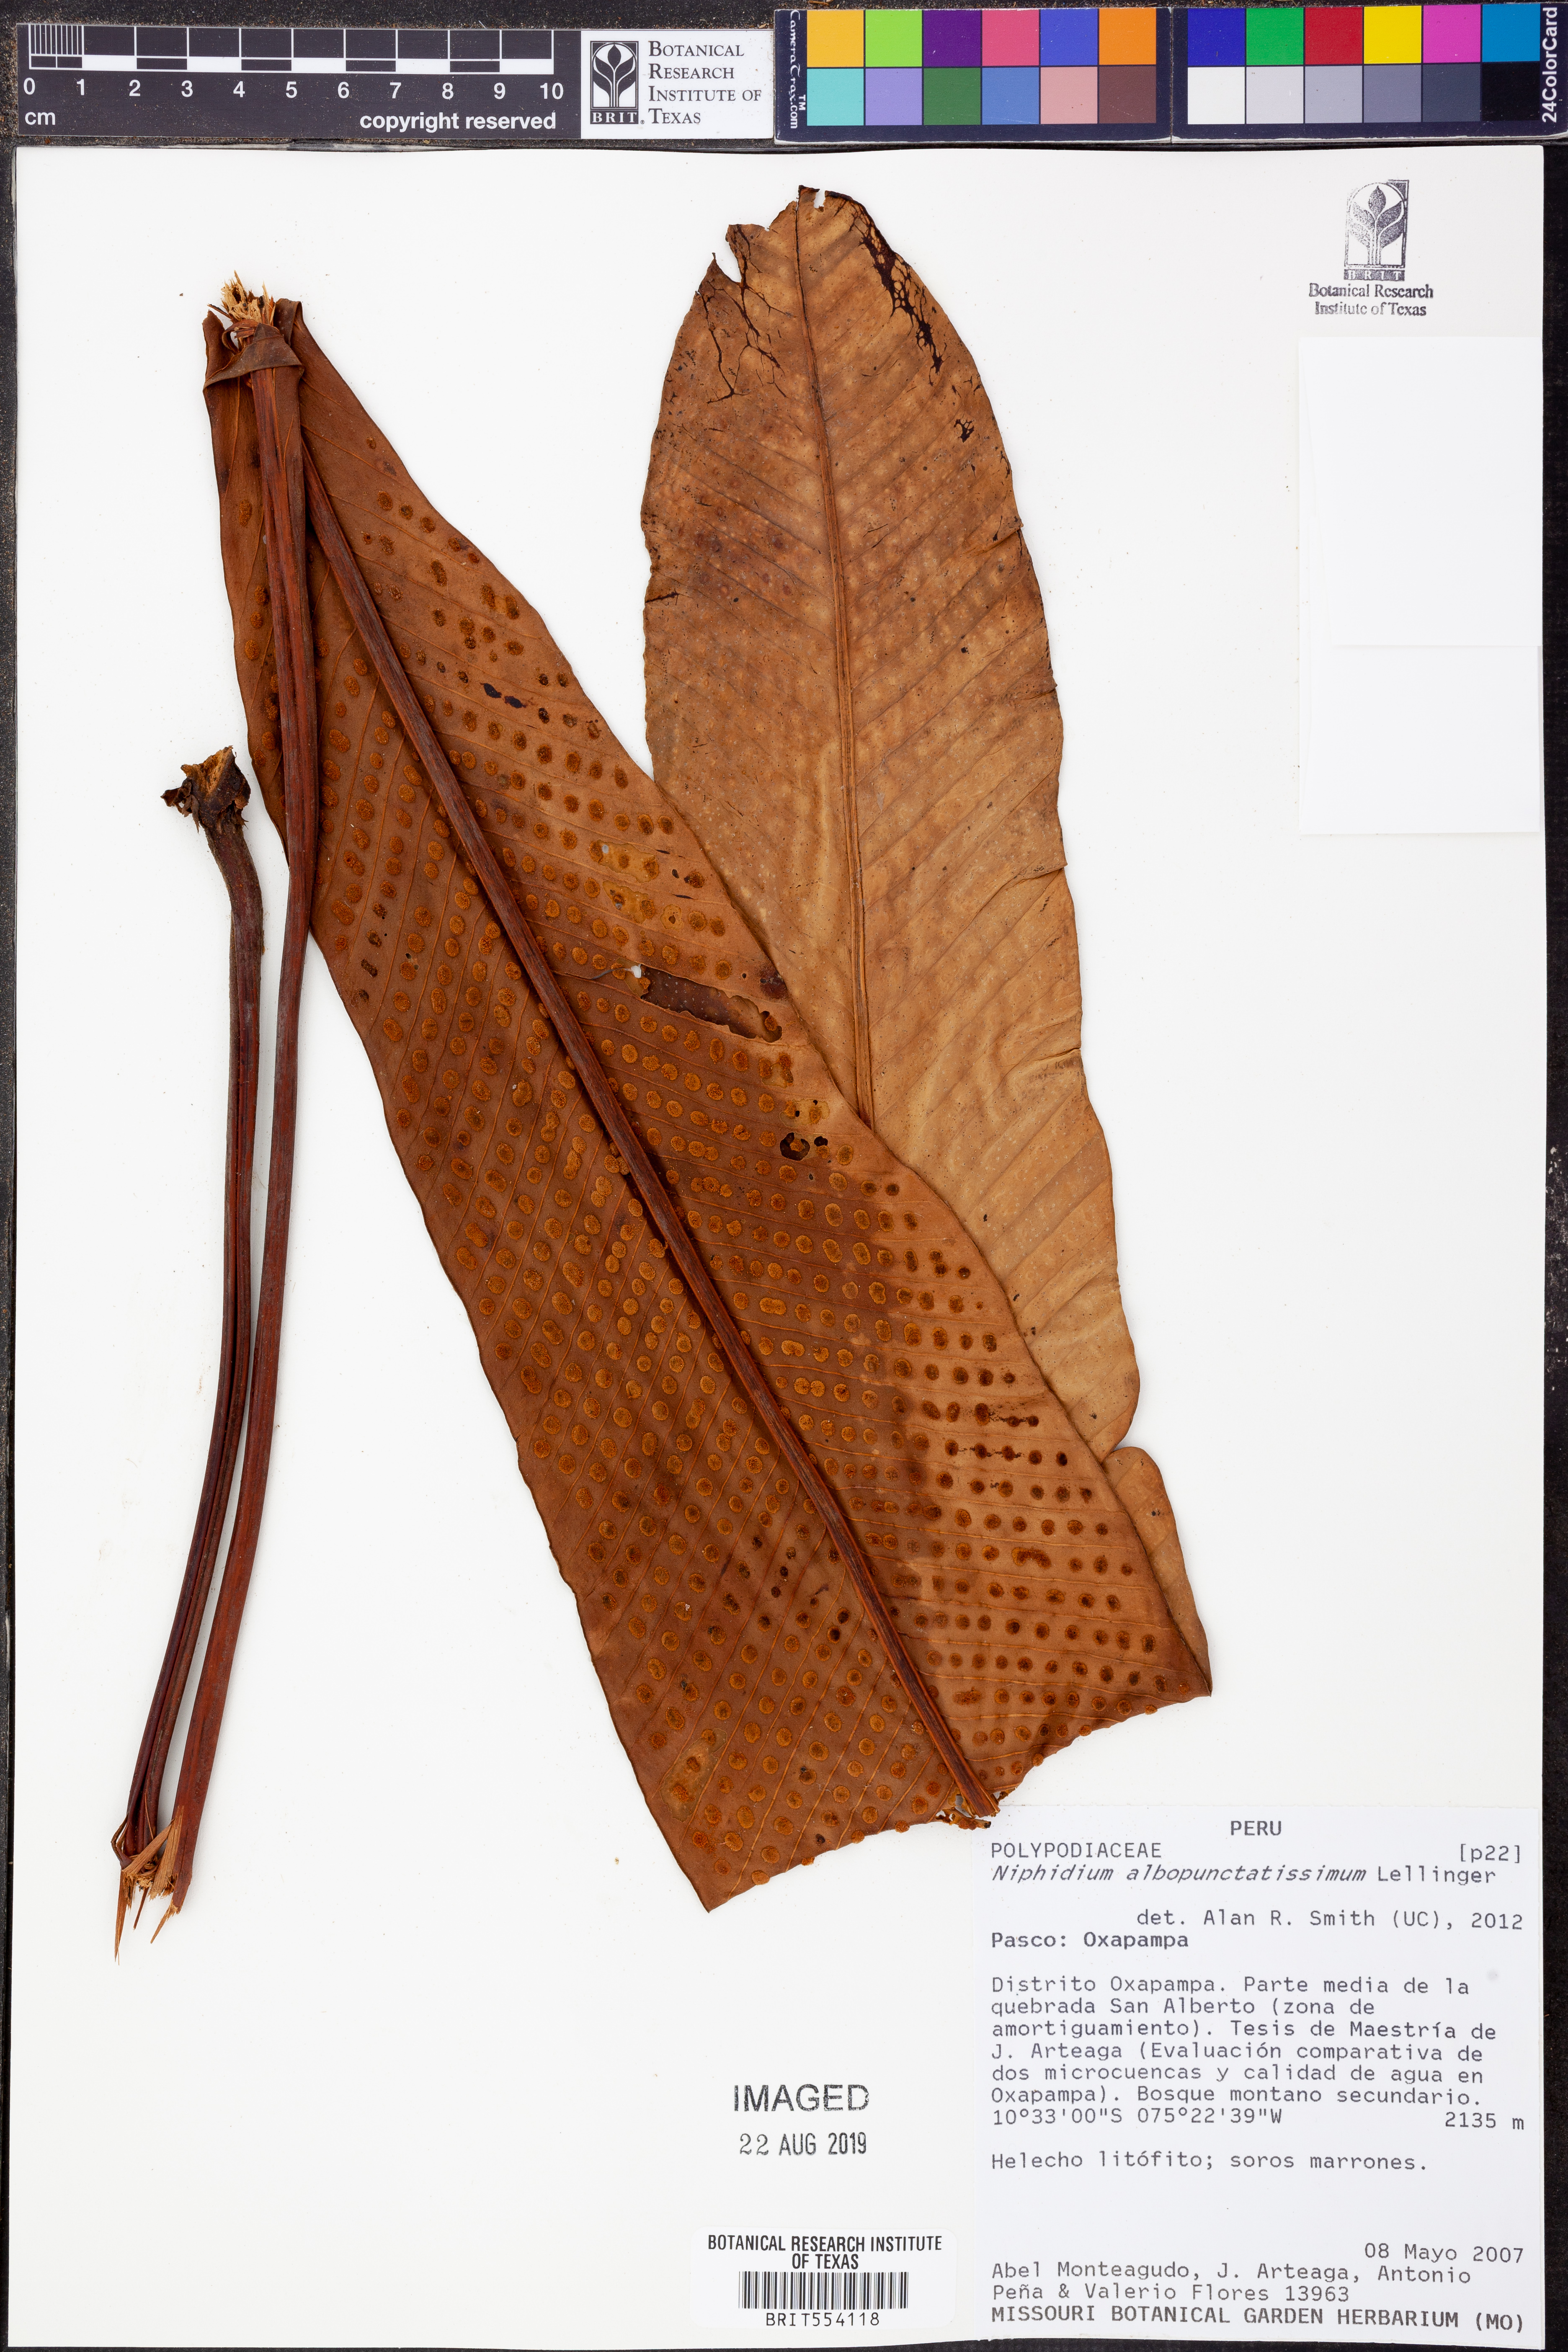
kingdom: Plantae
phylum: Tracheophyta
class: Polypodiopsida
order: Polypodiales
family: Polypodiaceae
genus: Niphidium
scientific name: Niphidium albopunctatissimum
